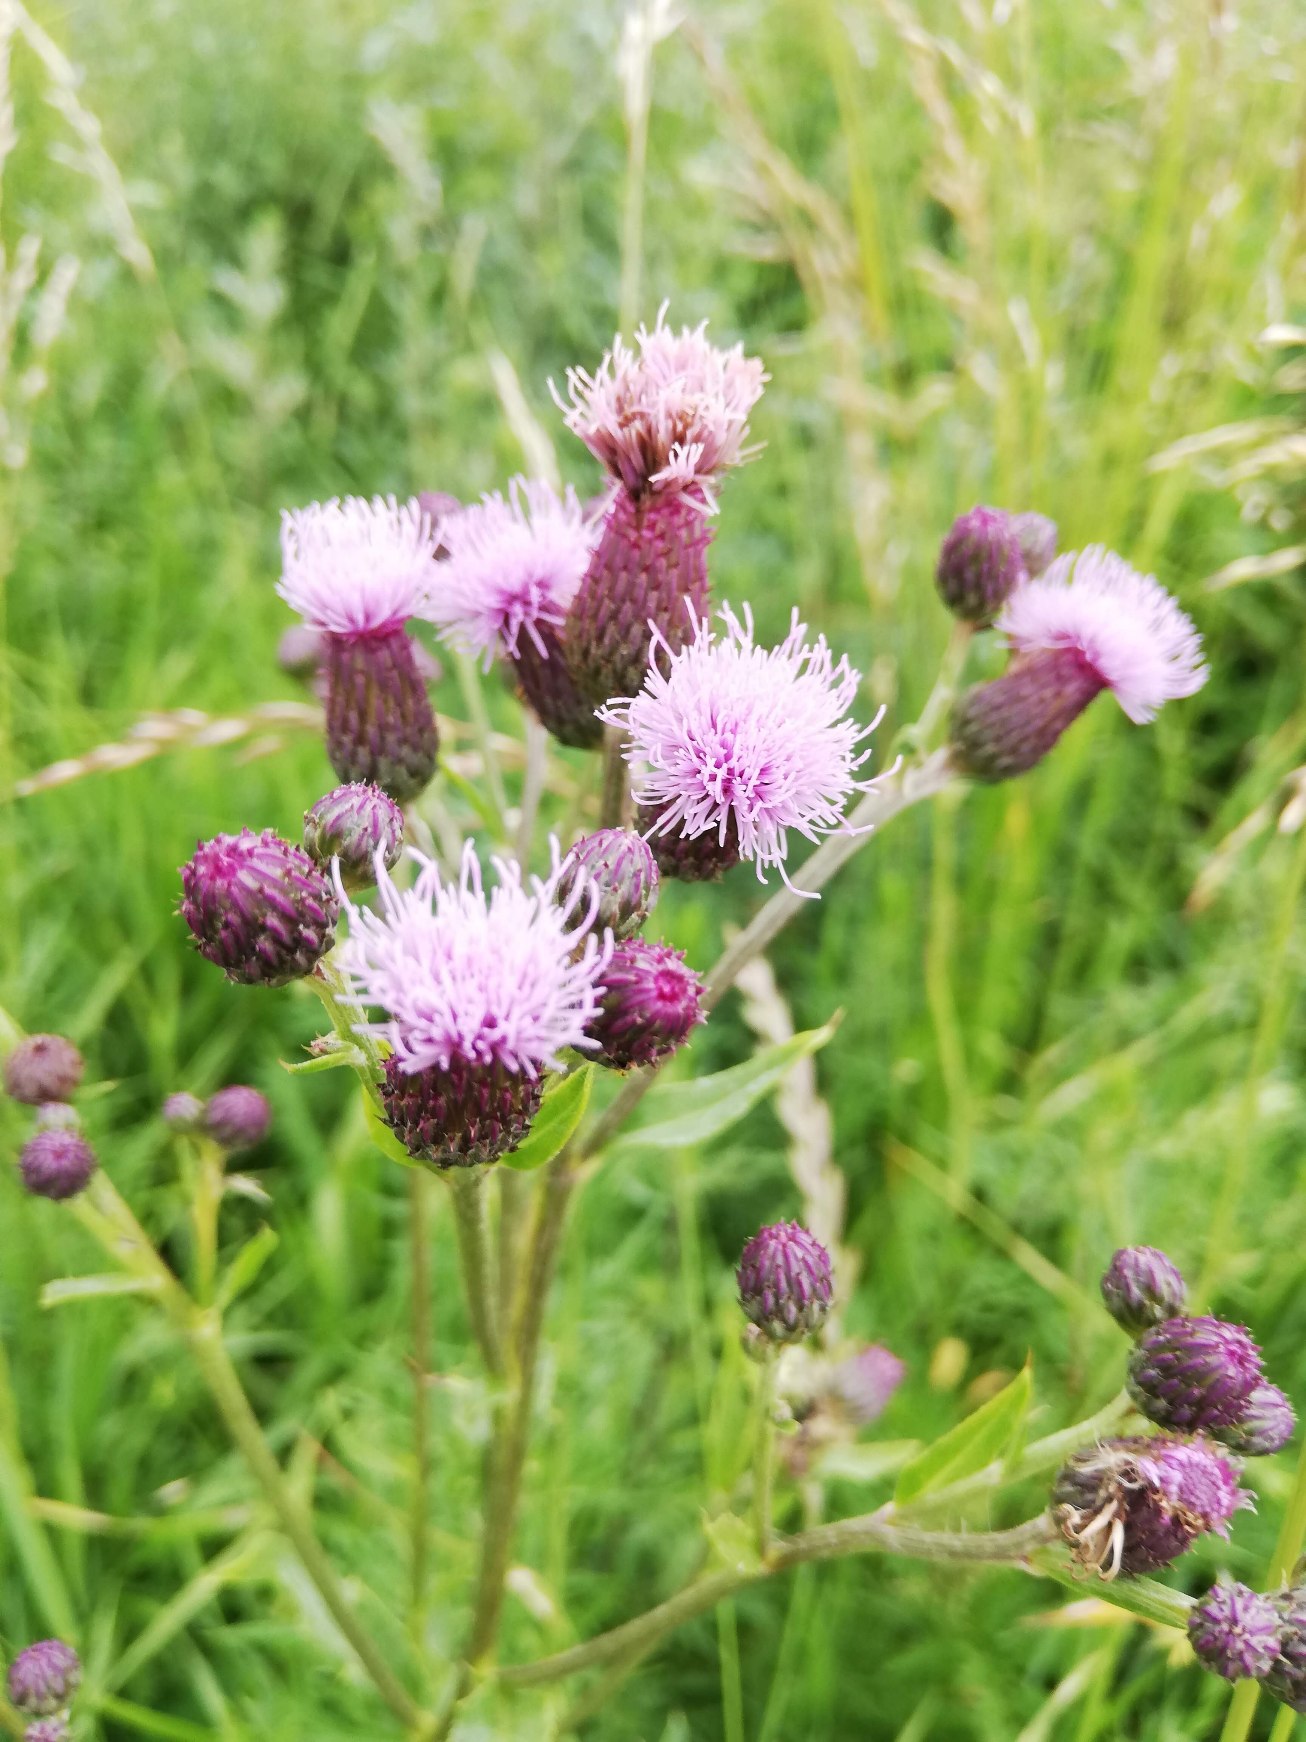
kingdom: Plantae
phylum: Tracheophyta
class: Magnoliopsida
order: Asterales
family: Asteraceae
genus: Cirsium
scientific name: Cirsium arvense
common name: Ager-tidsel
